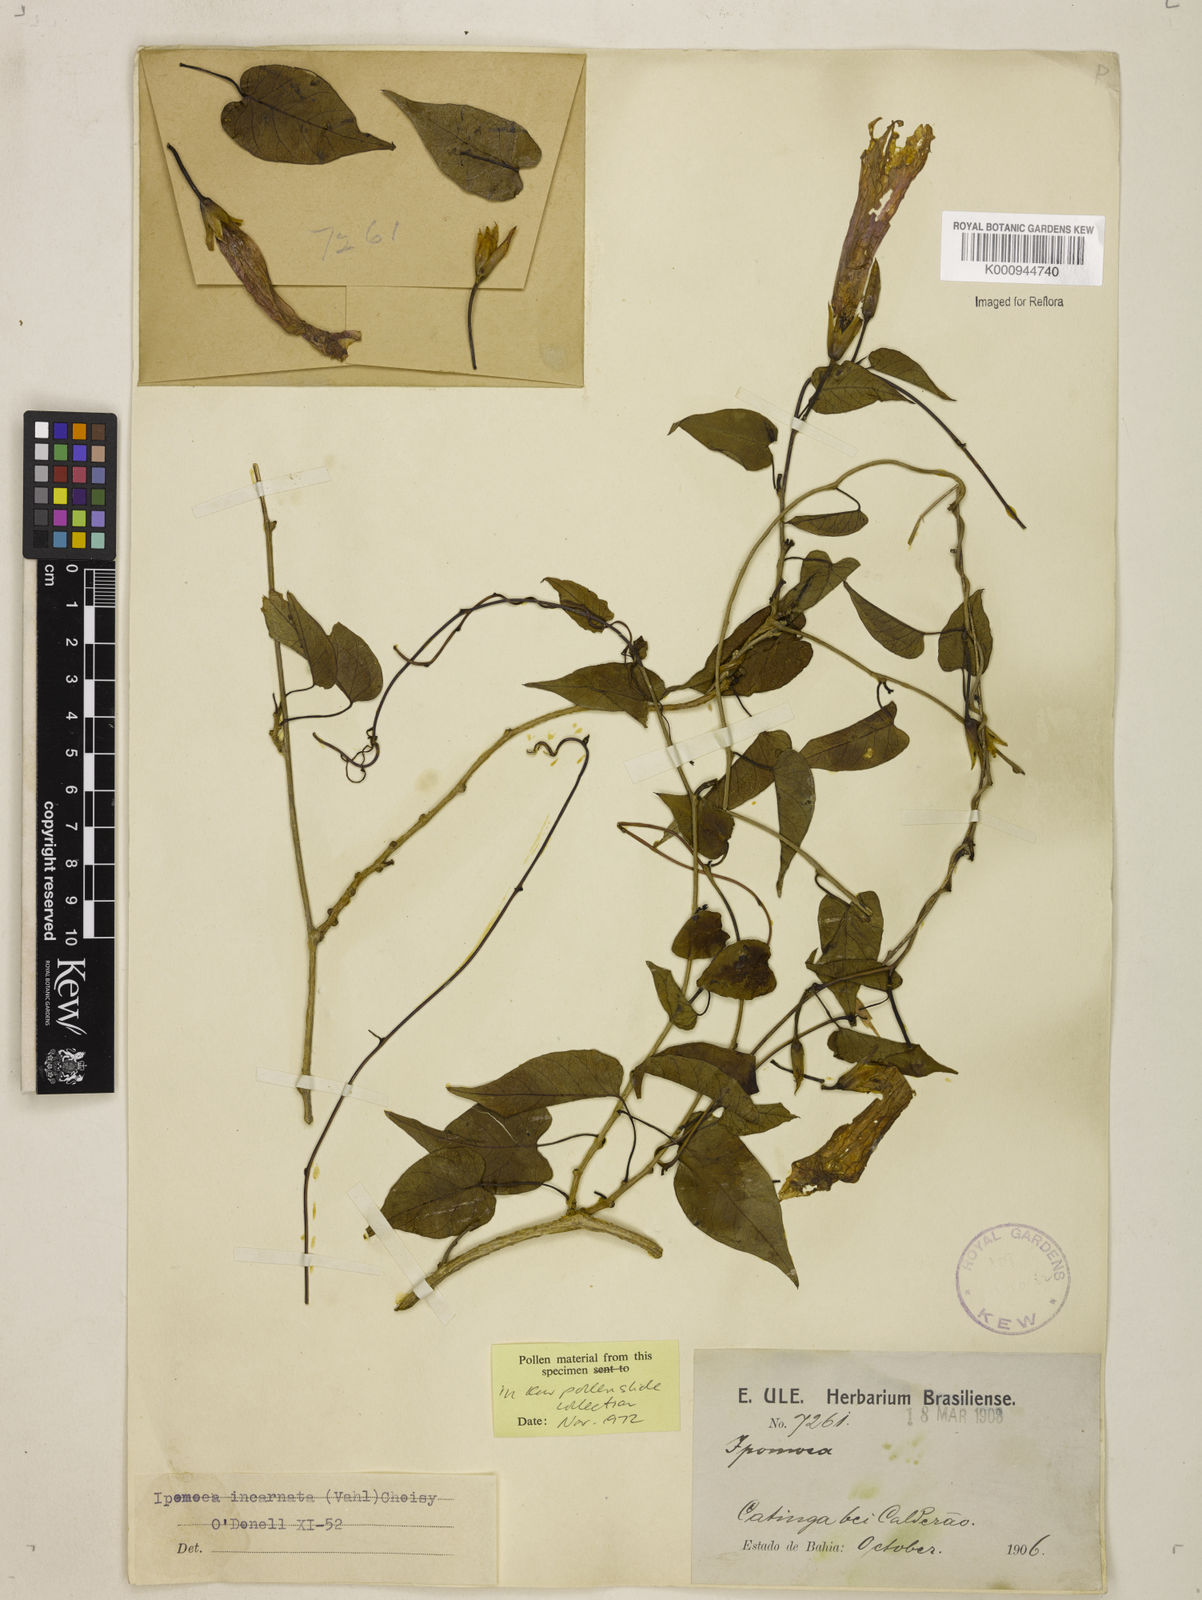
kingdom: Plantae
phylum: Tracheophyta
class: Magnoliopsida
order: Solanales
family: Convolvulaceae
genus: Ipomoea
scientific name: Ipomoea incarnata
